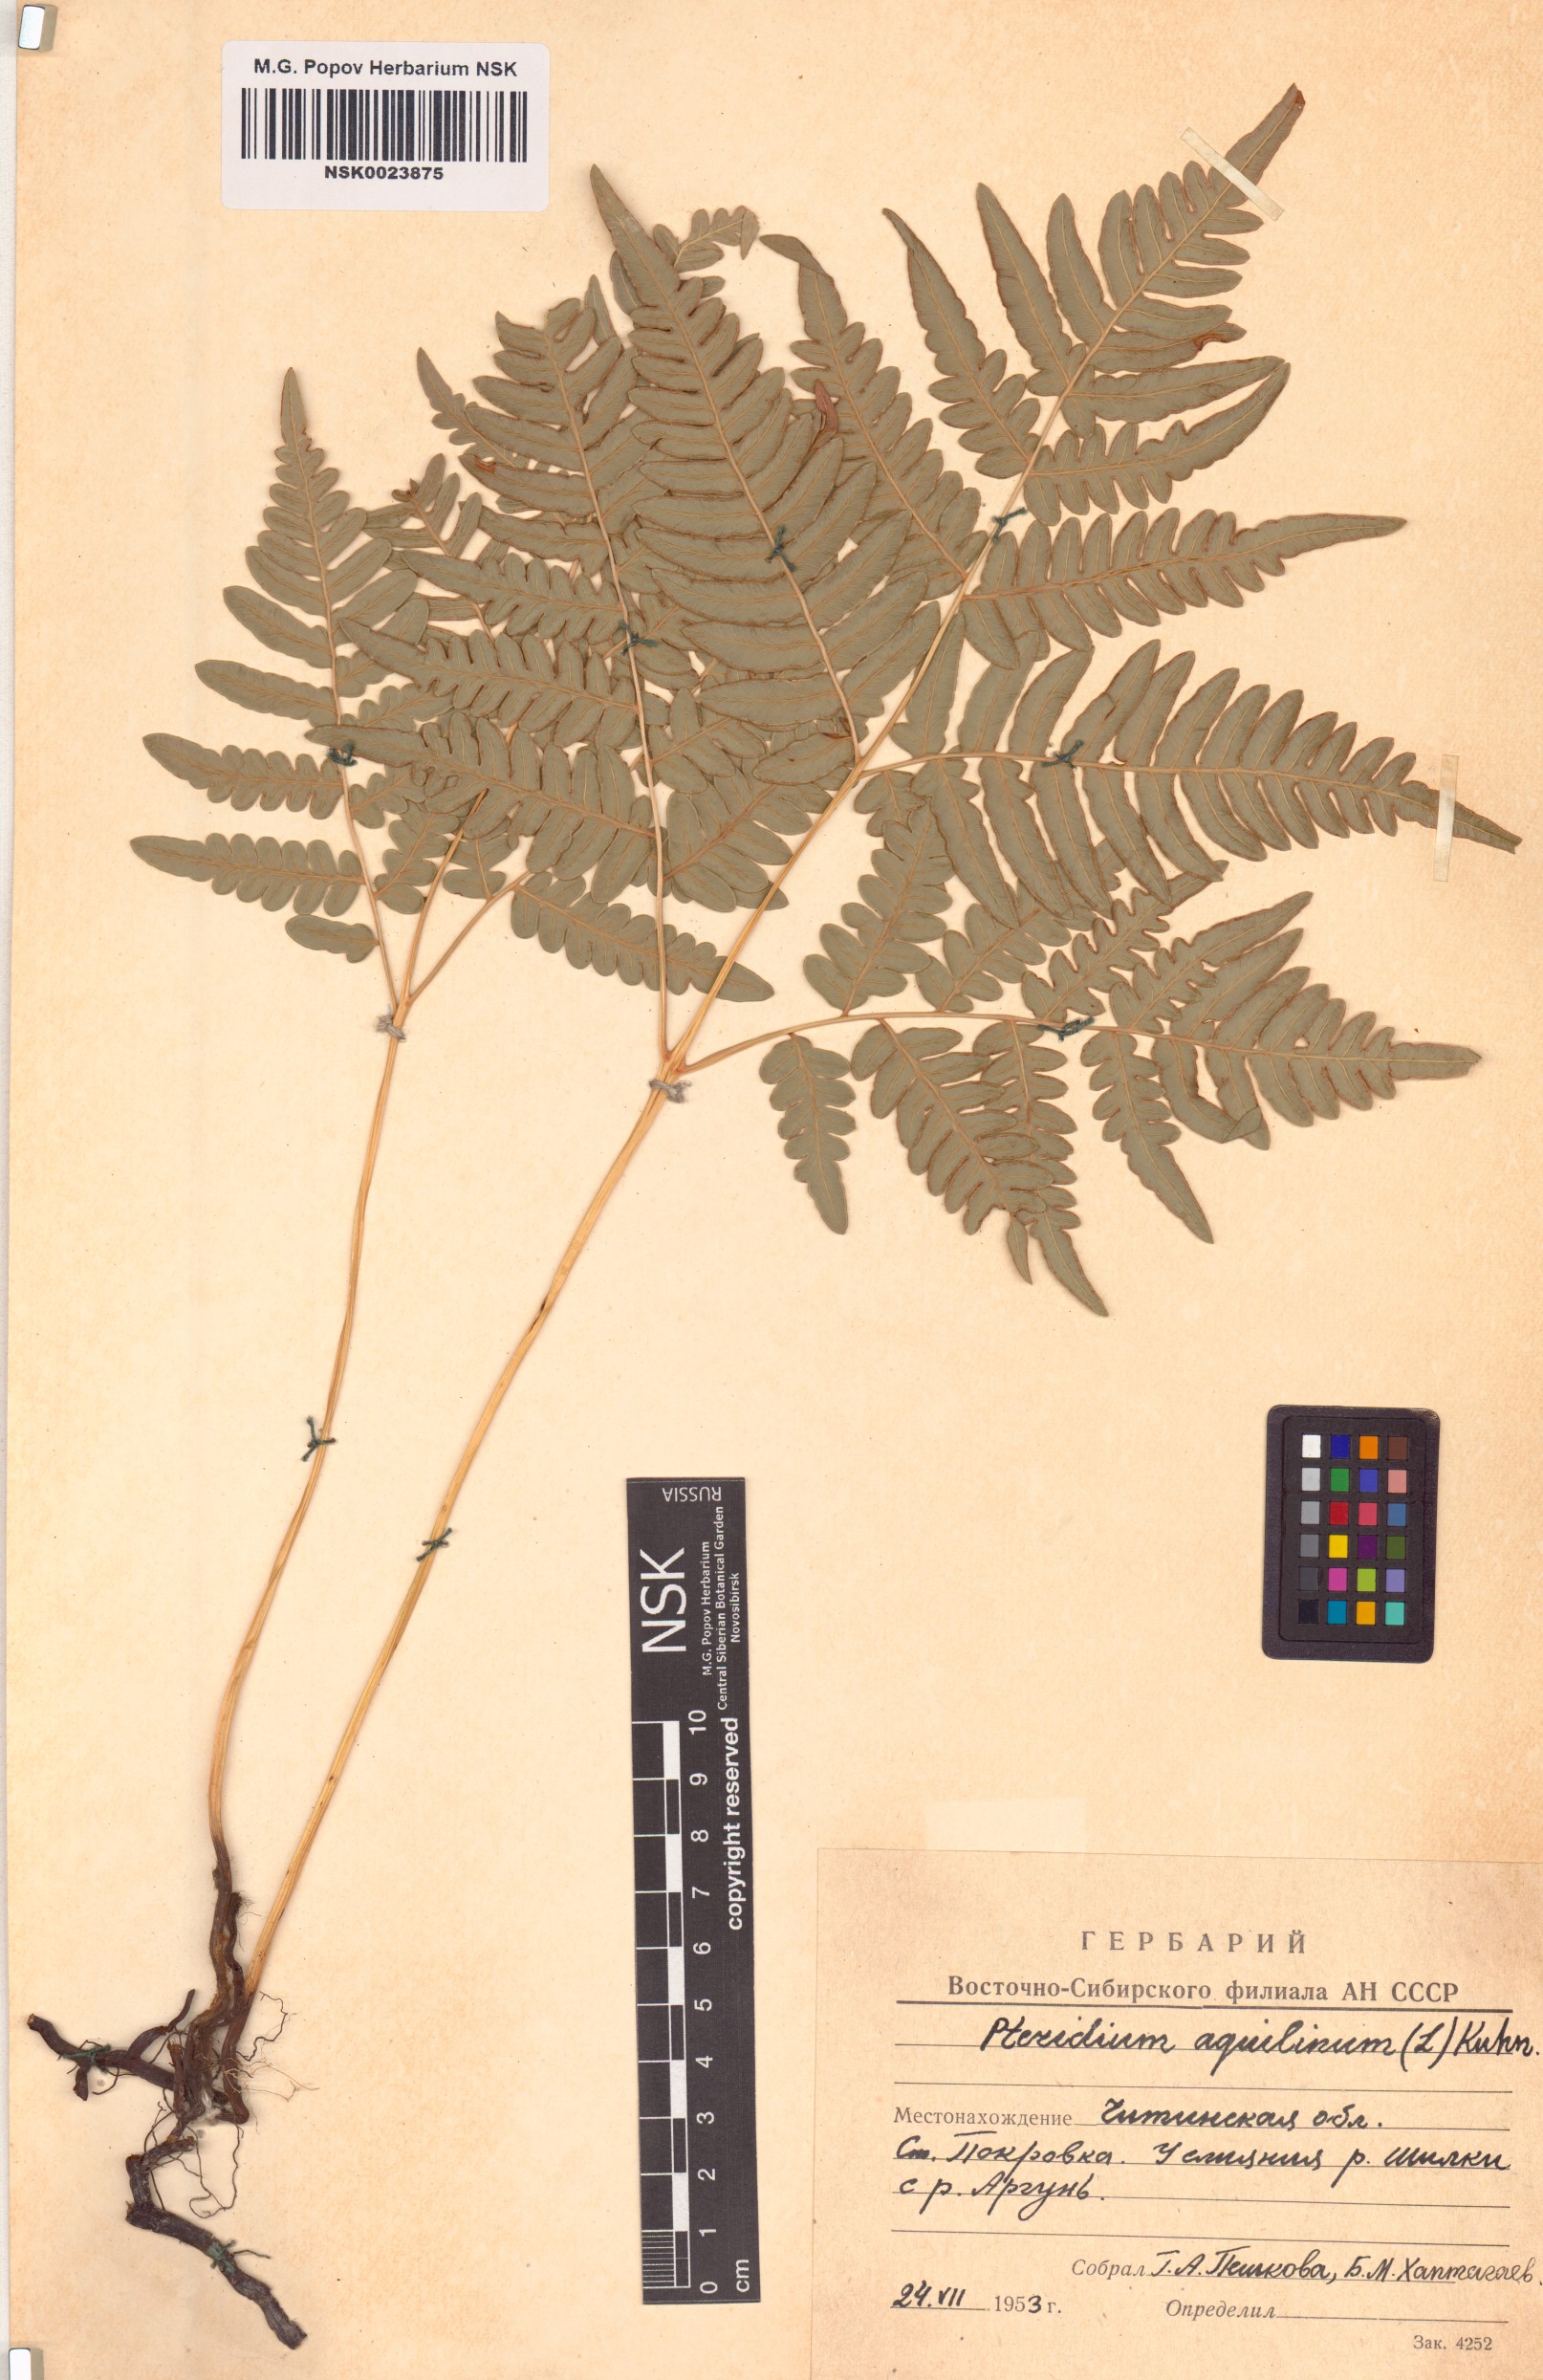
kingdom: Plantae
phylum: Tracheophyta
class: Polypodiopsida
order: Polypodiales
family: Dennstaedtiaceae
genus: Pteridium
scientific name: Pteridium aquilinum
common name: Bracken
